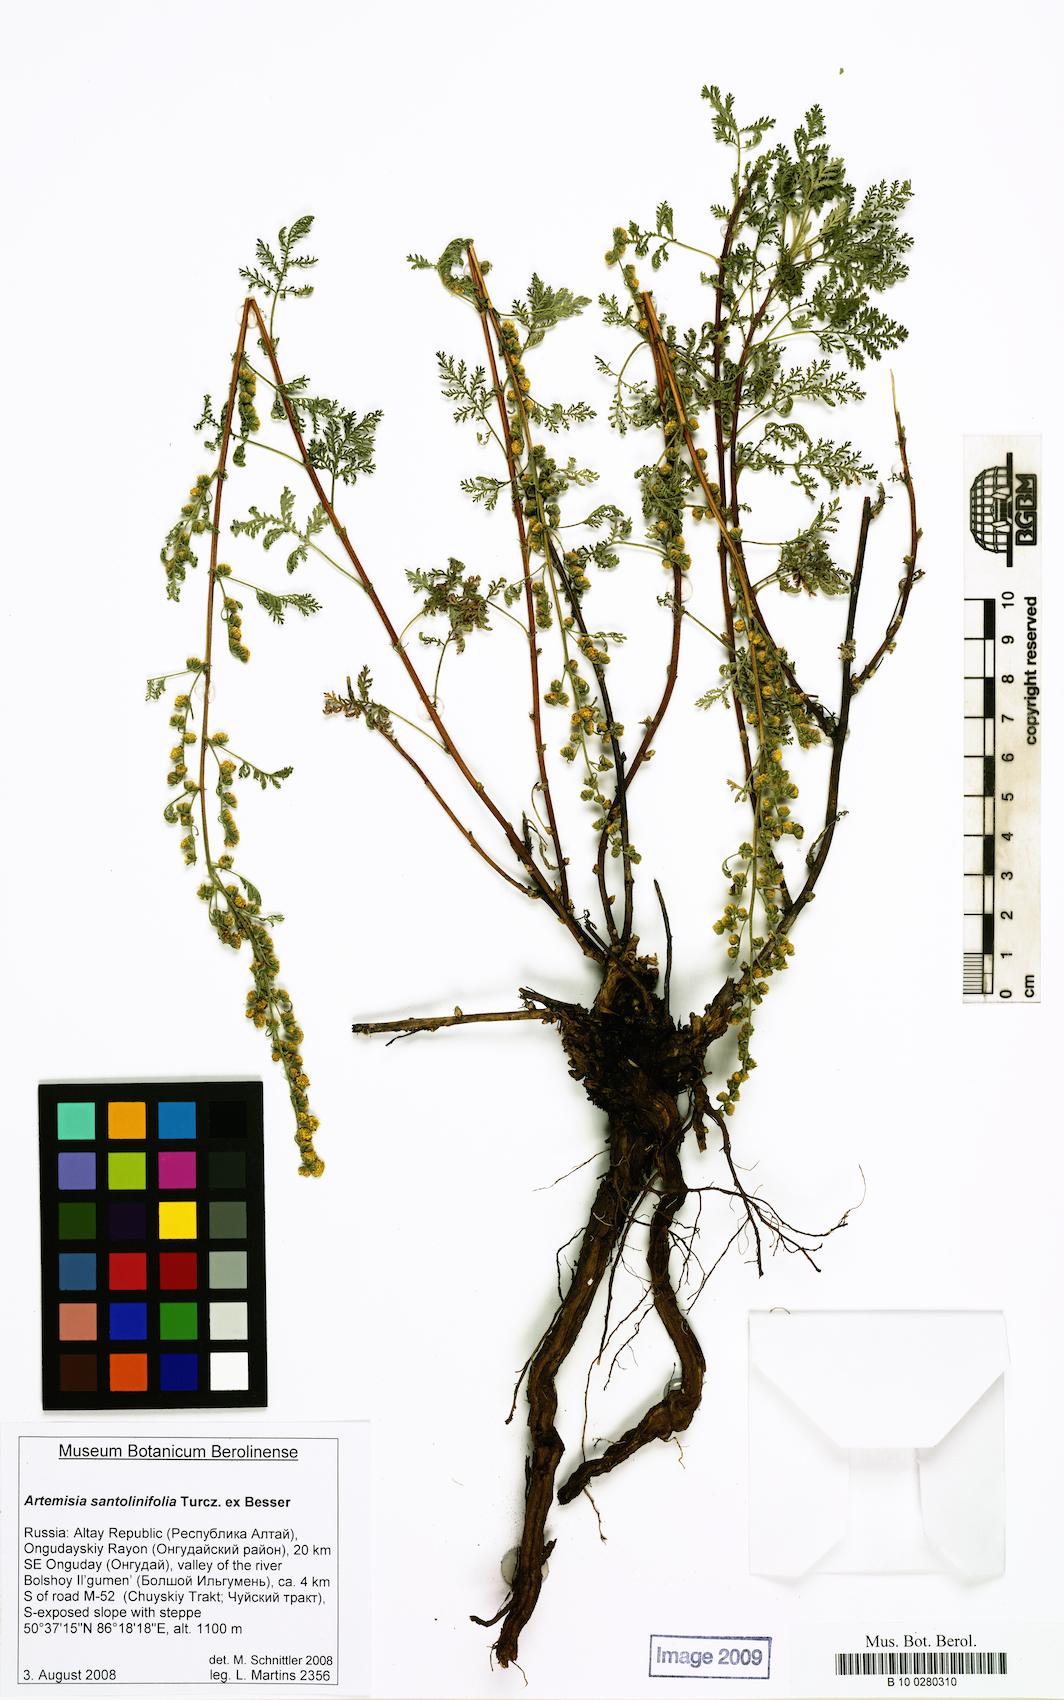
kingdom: Plantae
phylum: Tracheophyta
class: Magnoliopsida
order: Asterales
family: Asteraceae
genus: Artemisia
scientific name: Artemisia gmelinii
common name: Gmelin's wormwood
